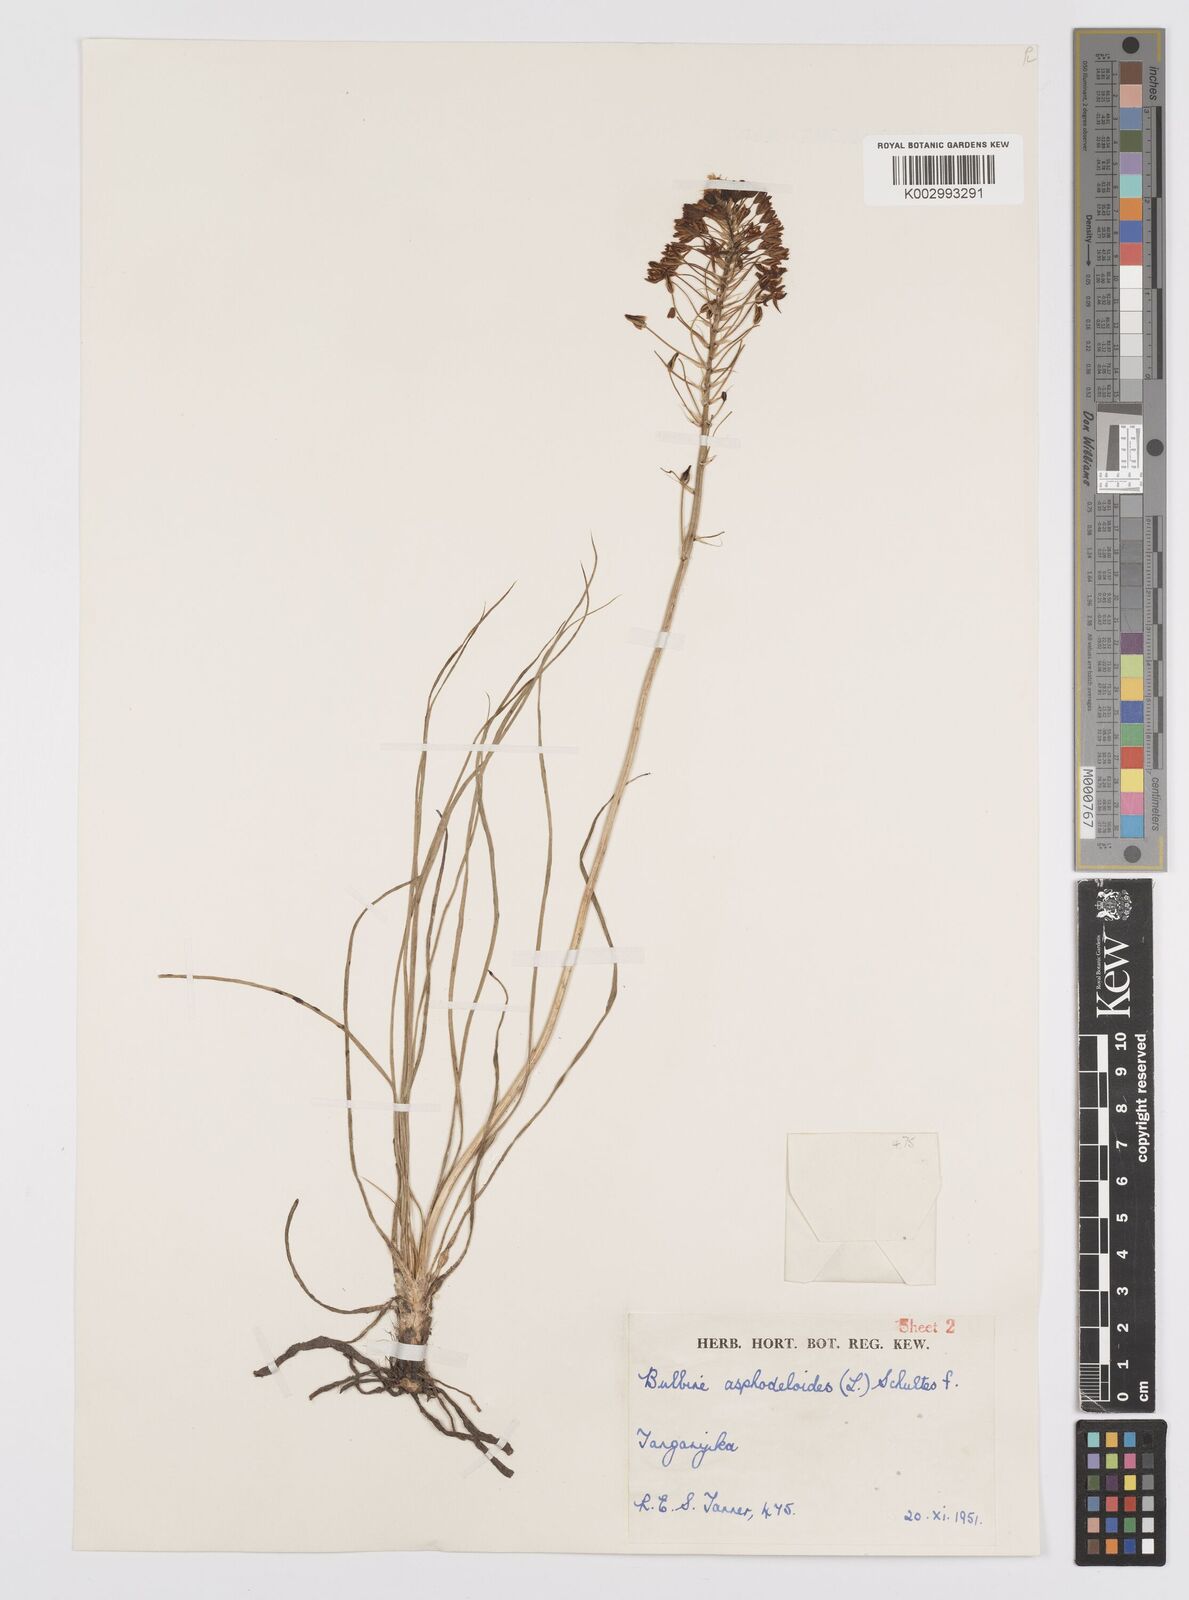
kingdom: Plantae
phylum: Tracheophyta
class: Liliopsida
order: Asparagales
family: Asphodelaceae
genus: Bulbine
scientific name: Bulbine abyssinica
